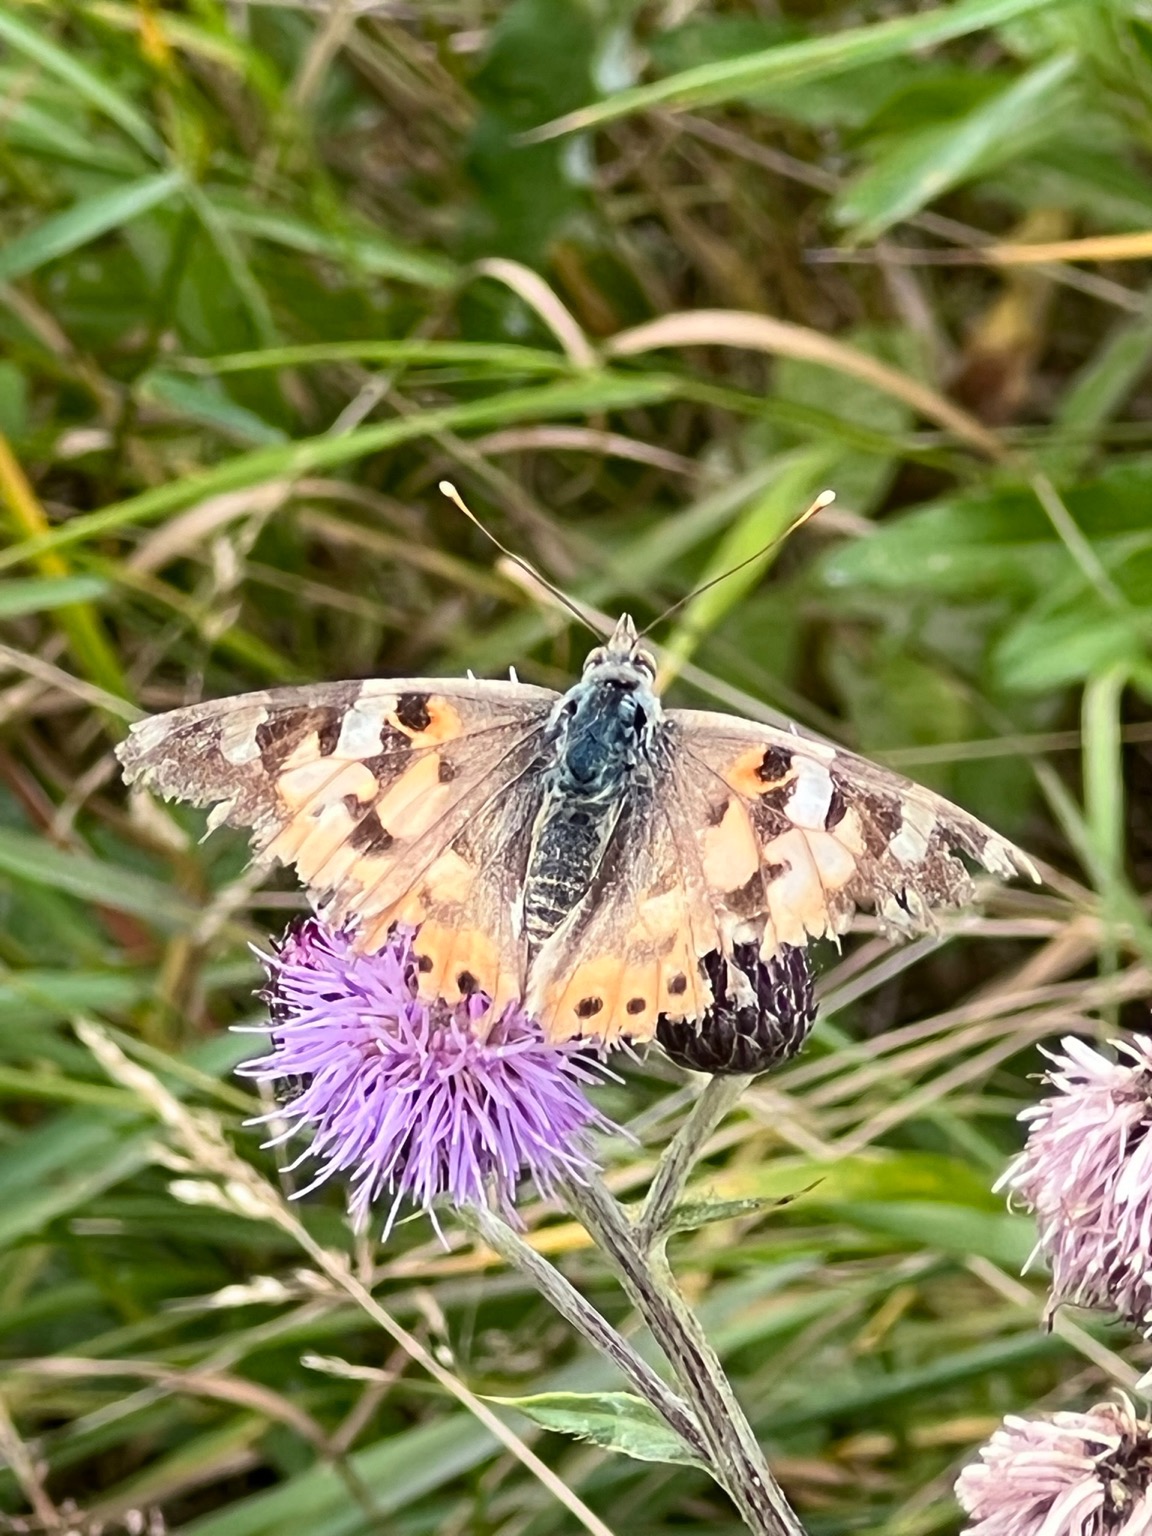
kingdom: Animalia
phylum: Arthropoda
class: Insecta
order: Lepidoptera
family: Nymphalidae
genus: Vanessa
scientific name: Vanessa cardui
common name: Tidselsommerfugl
